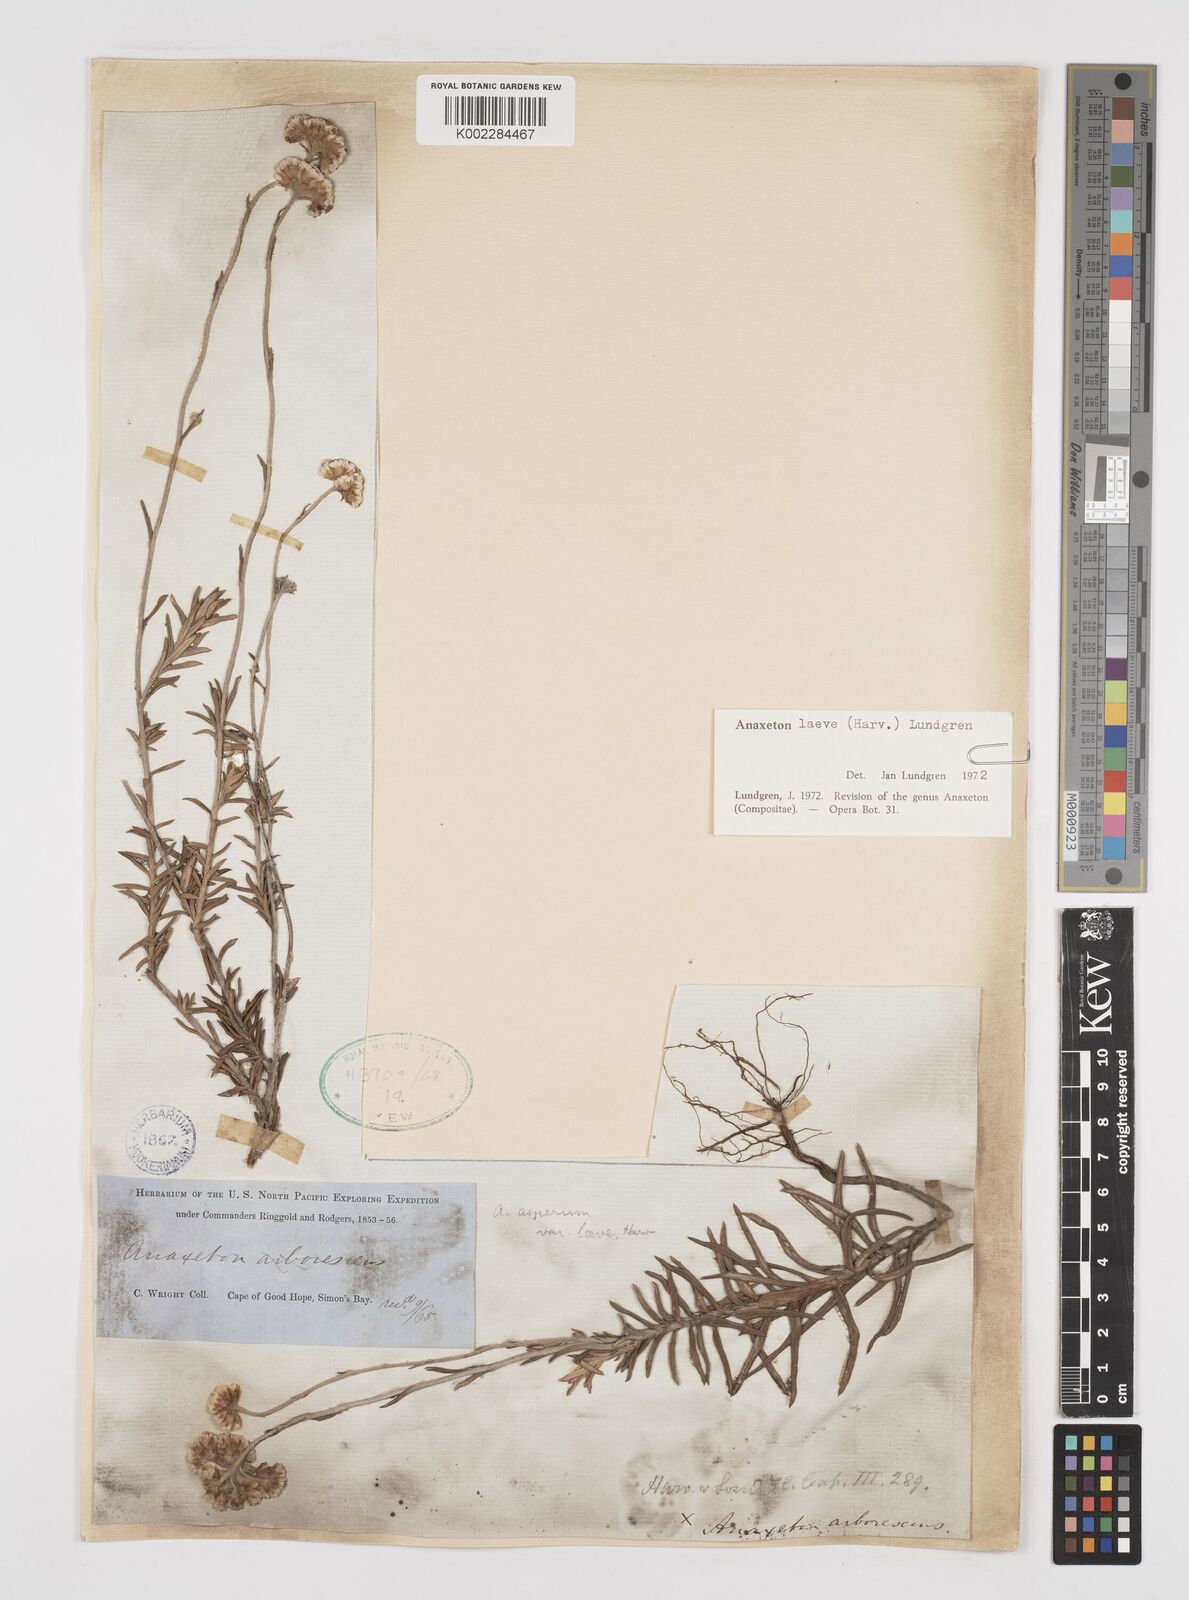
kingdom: Plantae
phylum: Tracheophyta
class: Magnoliopsida
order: Asterales
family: Asteraceae
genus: Anaxeton
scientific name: Anaxeton laeve
